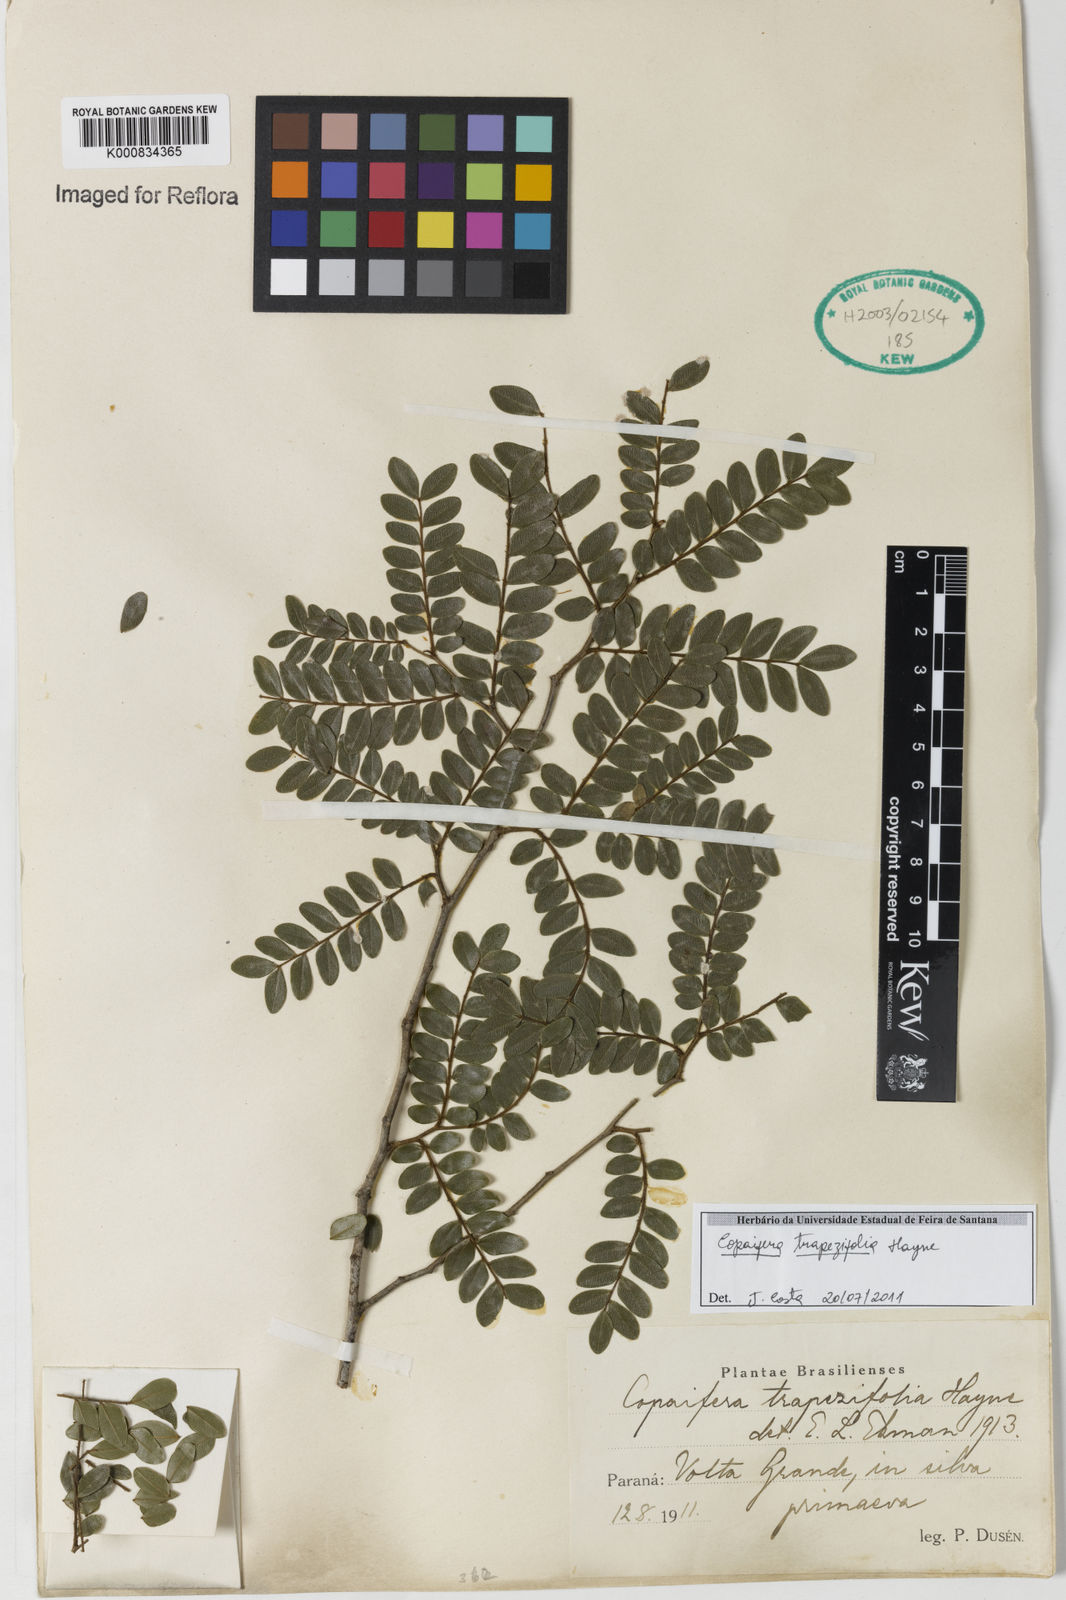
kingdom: Plantae
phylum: Tracheophyta
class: Magnoliopsida
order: Fabales
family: Fabaceae
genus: Copaifera
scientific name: Copaifera trapezifolia
